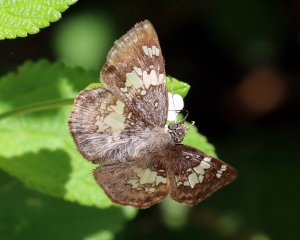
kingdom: Animalia
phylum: Arthropoda
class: Insecta
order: Lepidoptera
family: Hesperiidae
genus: Xenophanes
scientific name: Xenophanes tryxus
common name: Glassy-winged Skipper
